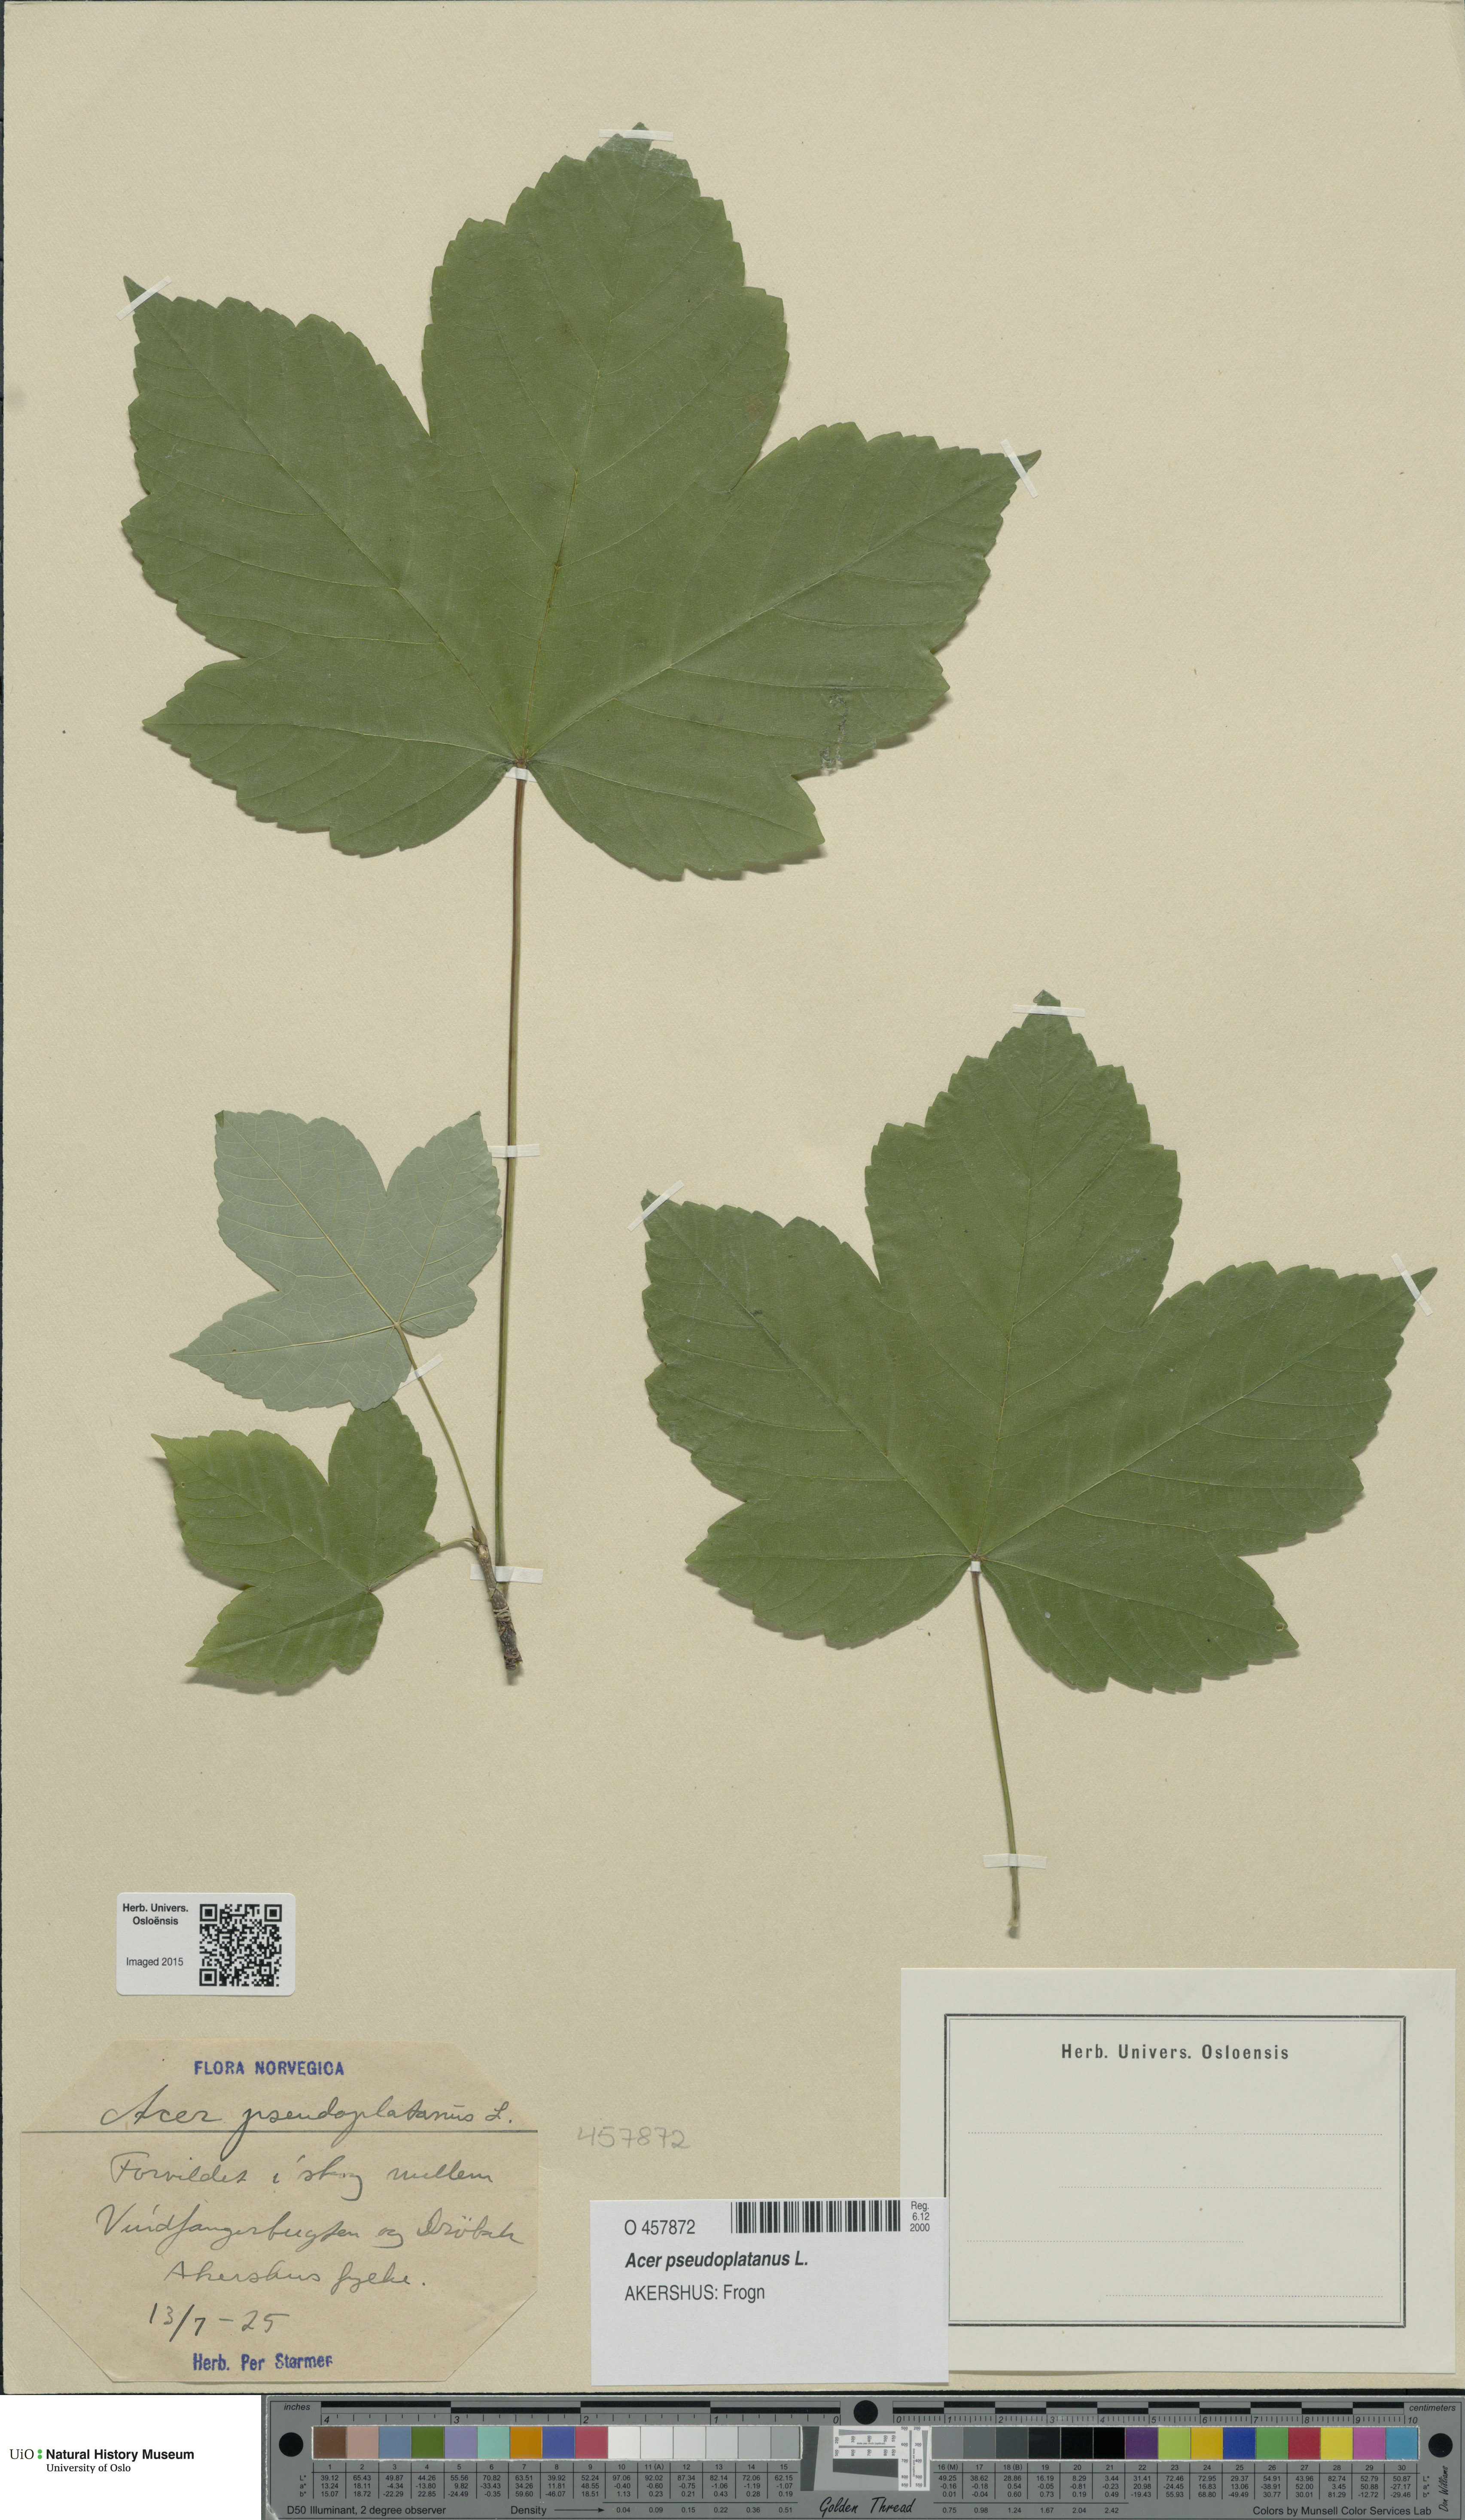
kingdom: Plantae
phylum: Tracheophyta
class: Magnoliopsida
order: Sapindales
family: Sapindaceae
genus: Acer
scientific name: Acer pseudoplatanus
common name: Sycamore
